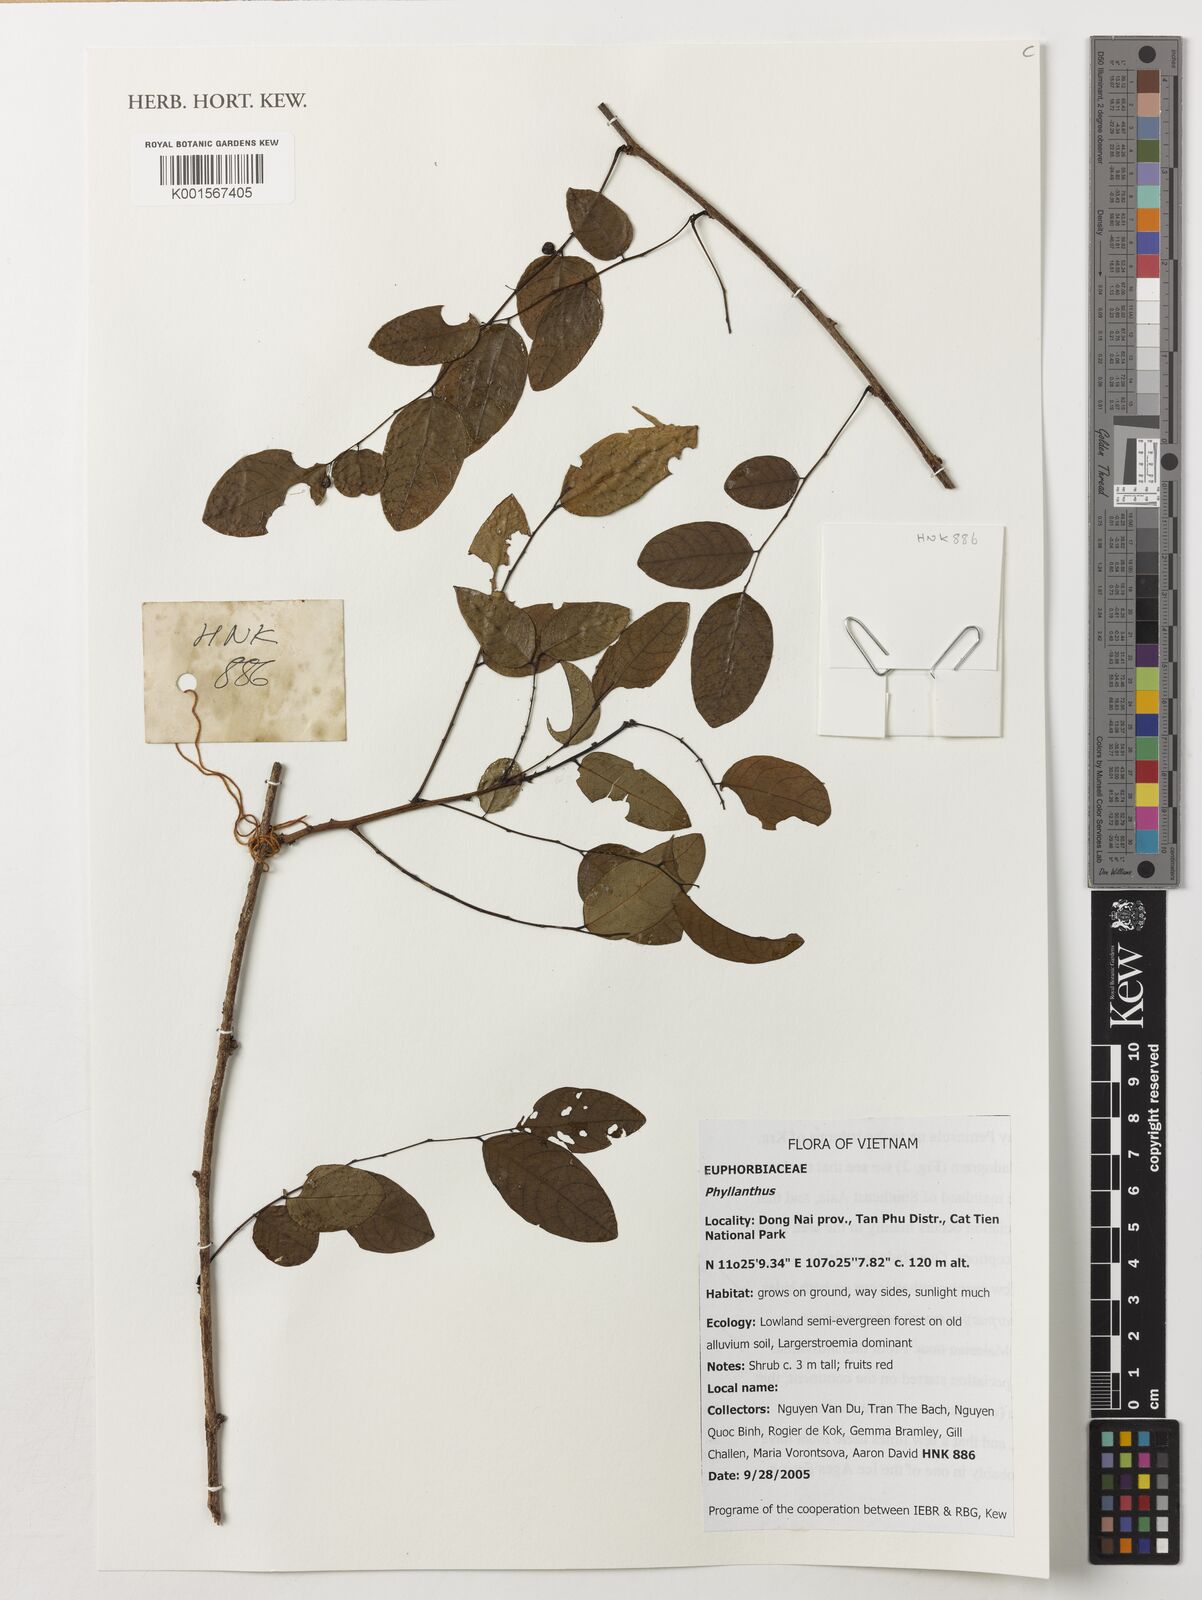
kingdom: Plantae
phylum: Tracheophyta
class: Magnoliopsida
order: Malpighiales
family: Phyllanthaceae
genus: Phyllanthus
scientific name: Phyllanthus
